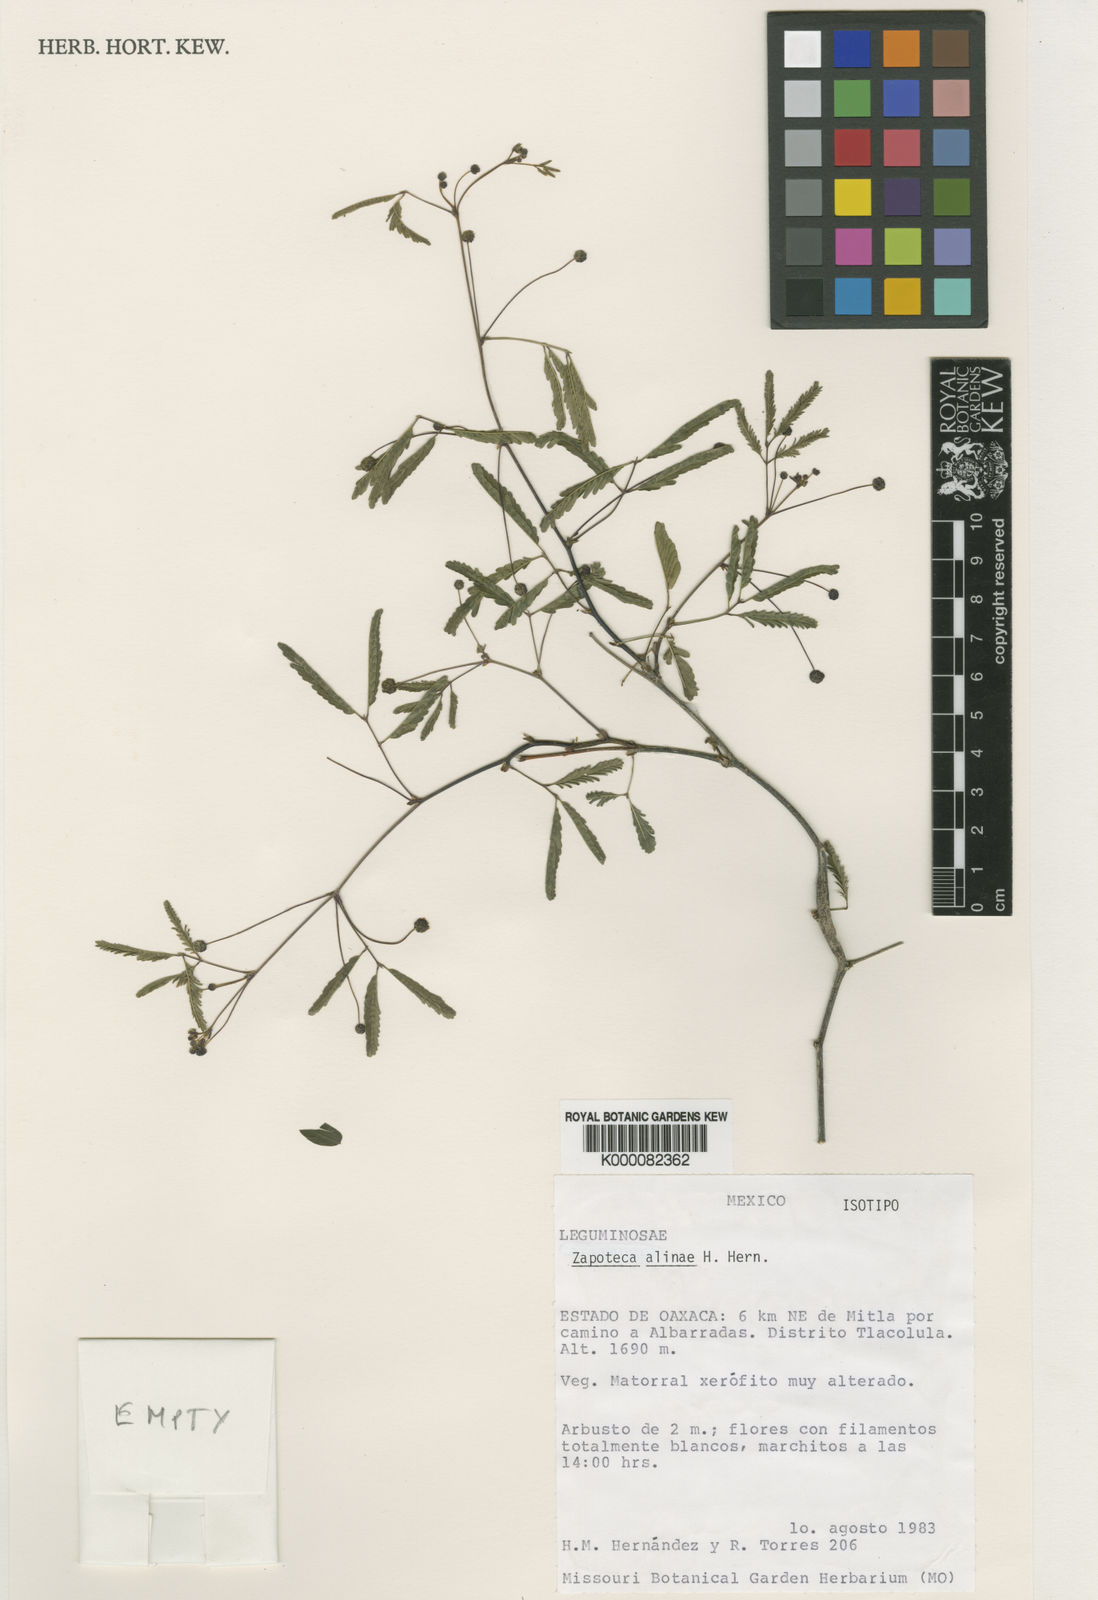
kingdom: Plantae
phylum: Tracheophyta
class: Magnoliopsida
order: Fabales
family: Fabaceae
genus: Zapoteca
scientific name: Zapoteca alinae
